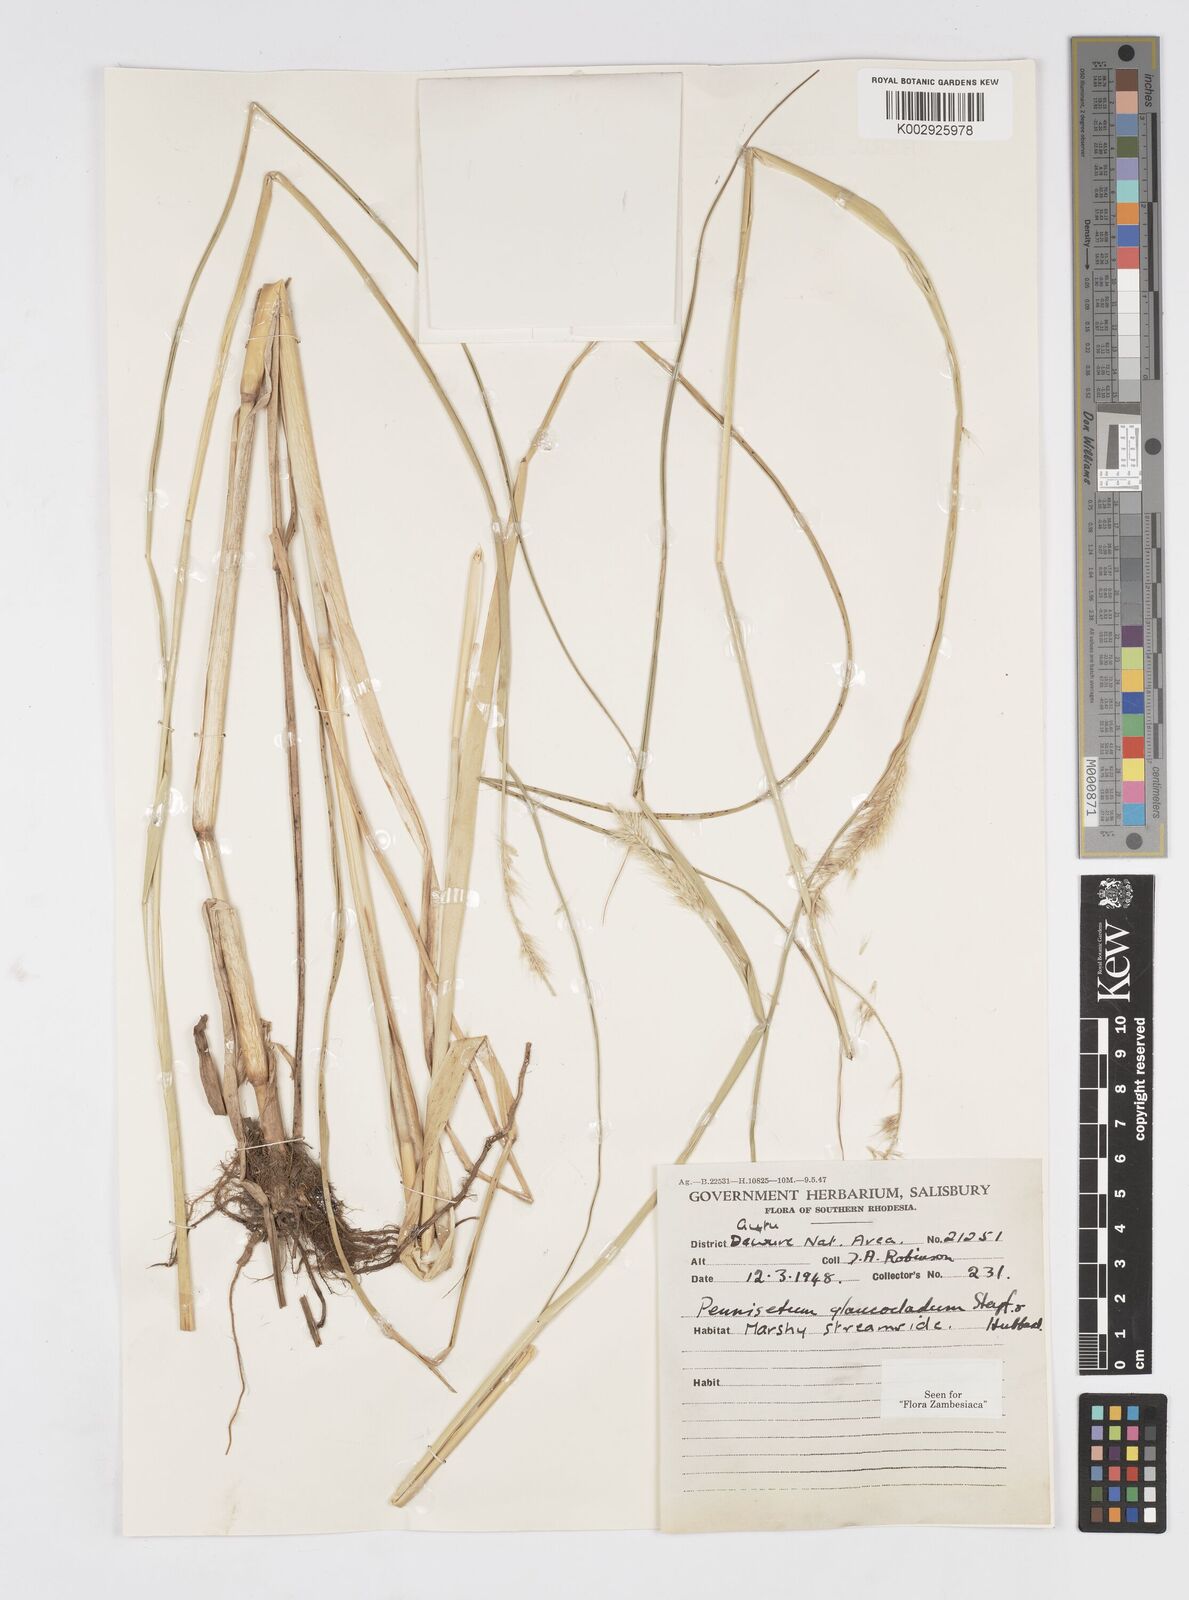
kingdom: Plantae
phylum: Tracheophyta
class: Liliopsida
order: Poales
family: Poaceae
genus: Cenchrus
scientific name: Cenchrus caudatus
